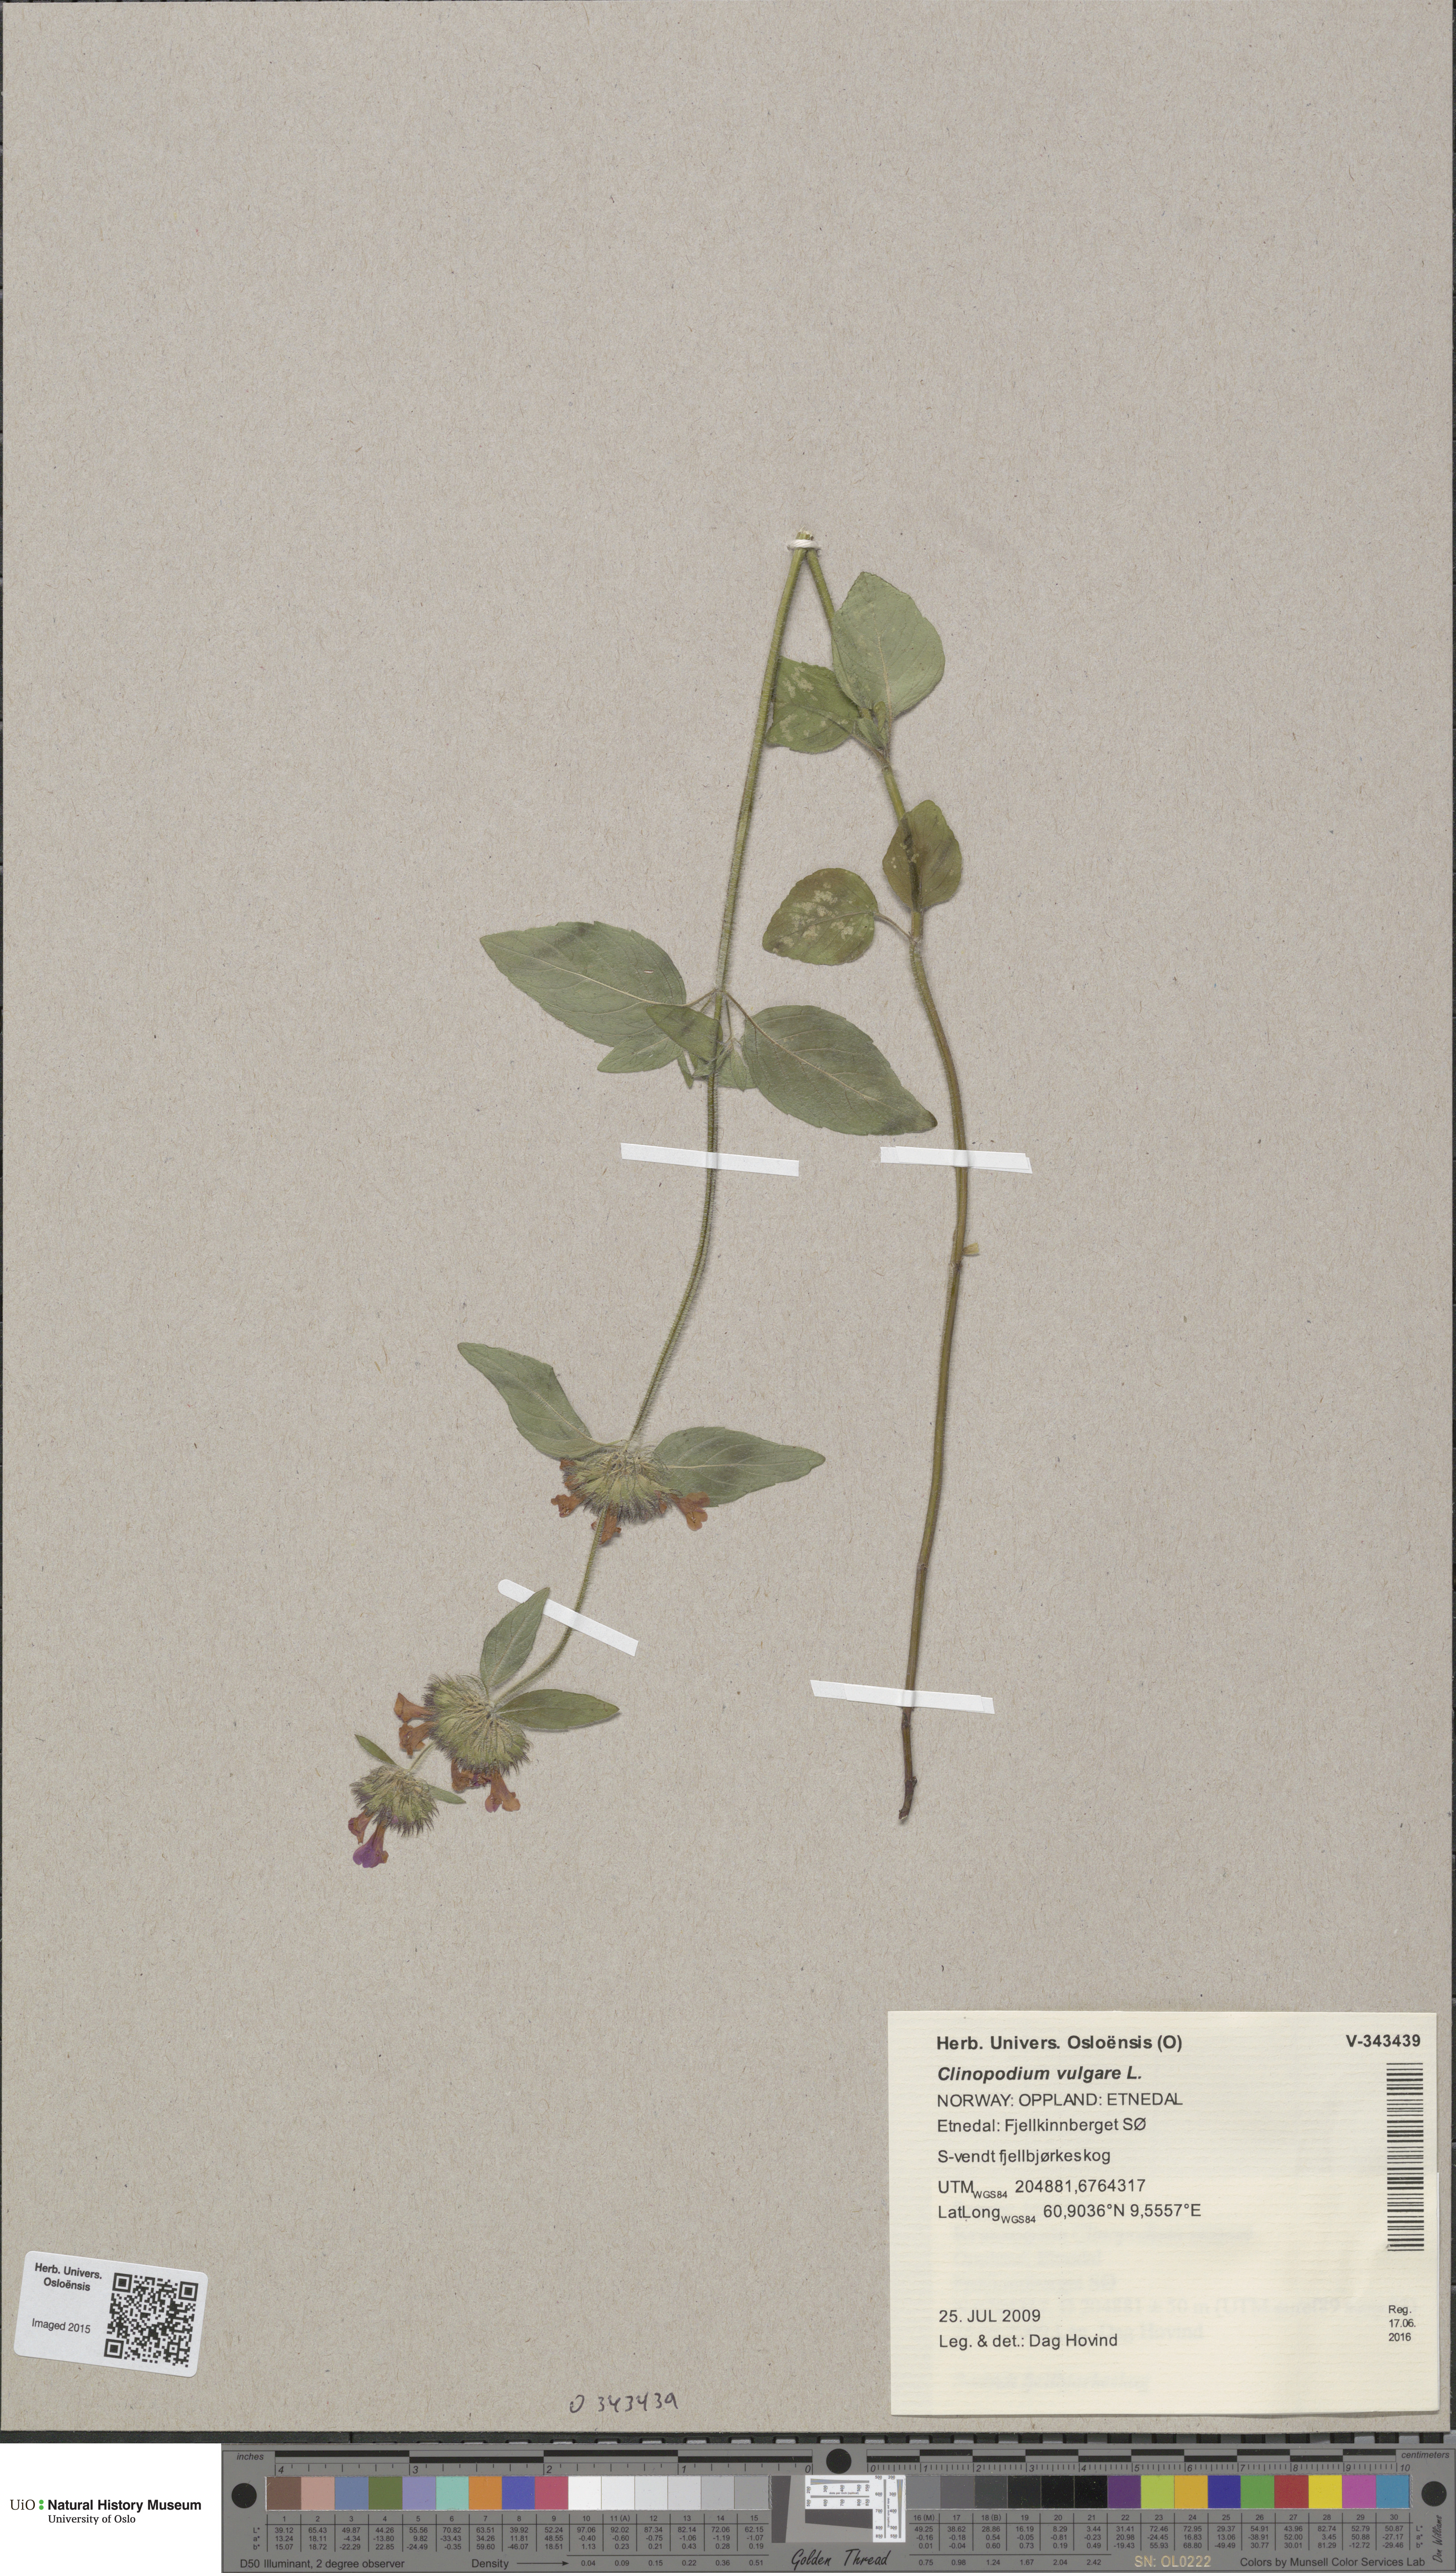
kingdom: Plantae
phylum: Tracheophyta
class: Magnoliopsida
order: Lamiales
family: Lamiaceae
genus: Clinopodium
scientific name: Clinopodium vulgare
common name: Wild basil
